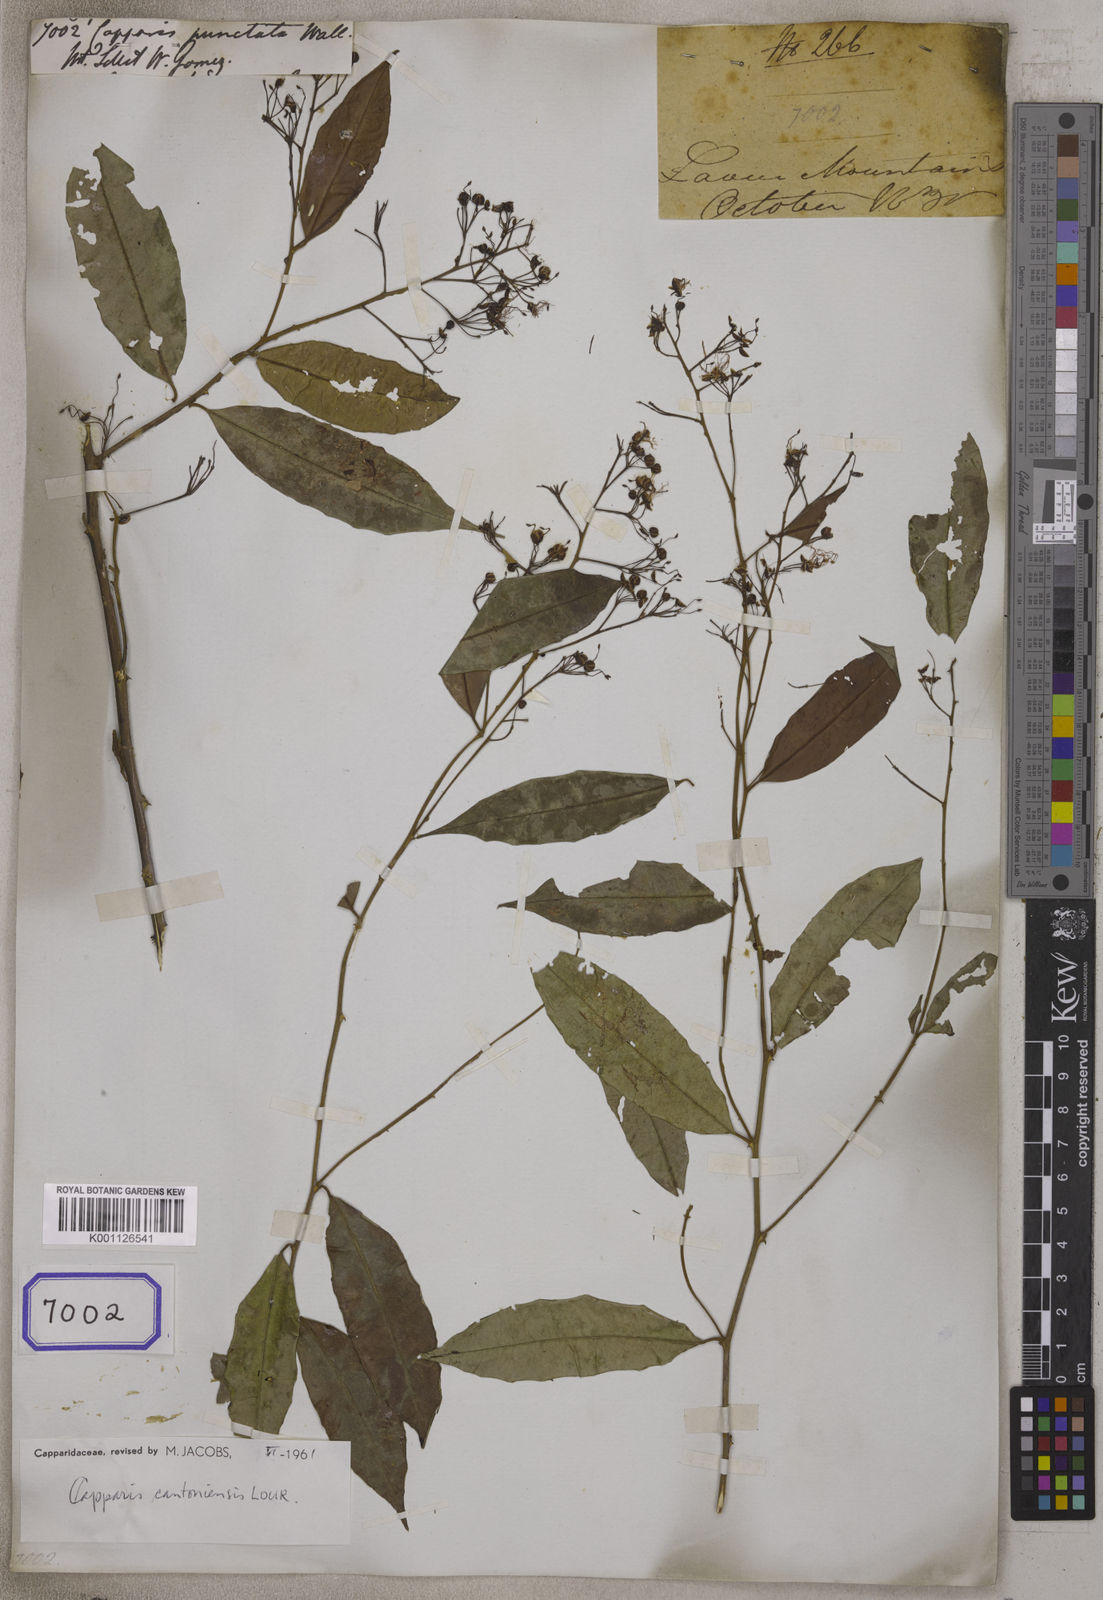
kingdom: Plantae
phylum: Tracheophyta
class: Magnoliopsida
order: Brassicales
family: Capparaceae
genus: Capparis
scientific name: Capparis cantoniensis
